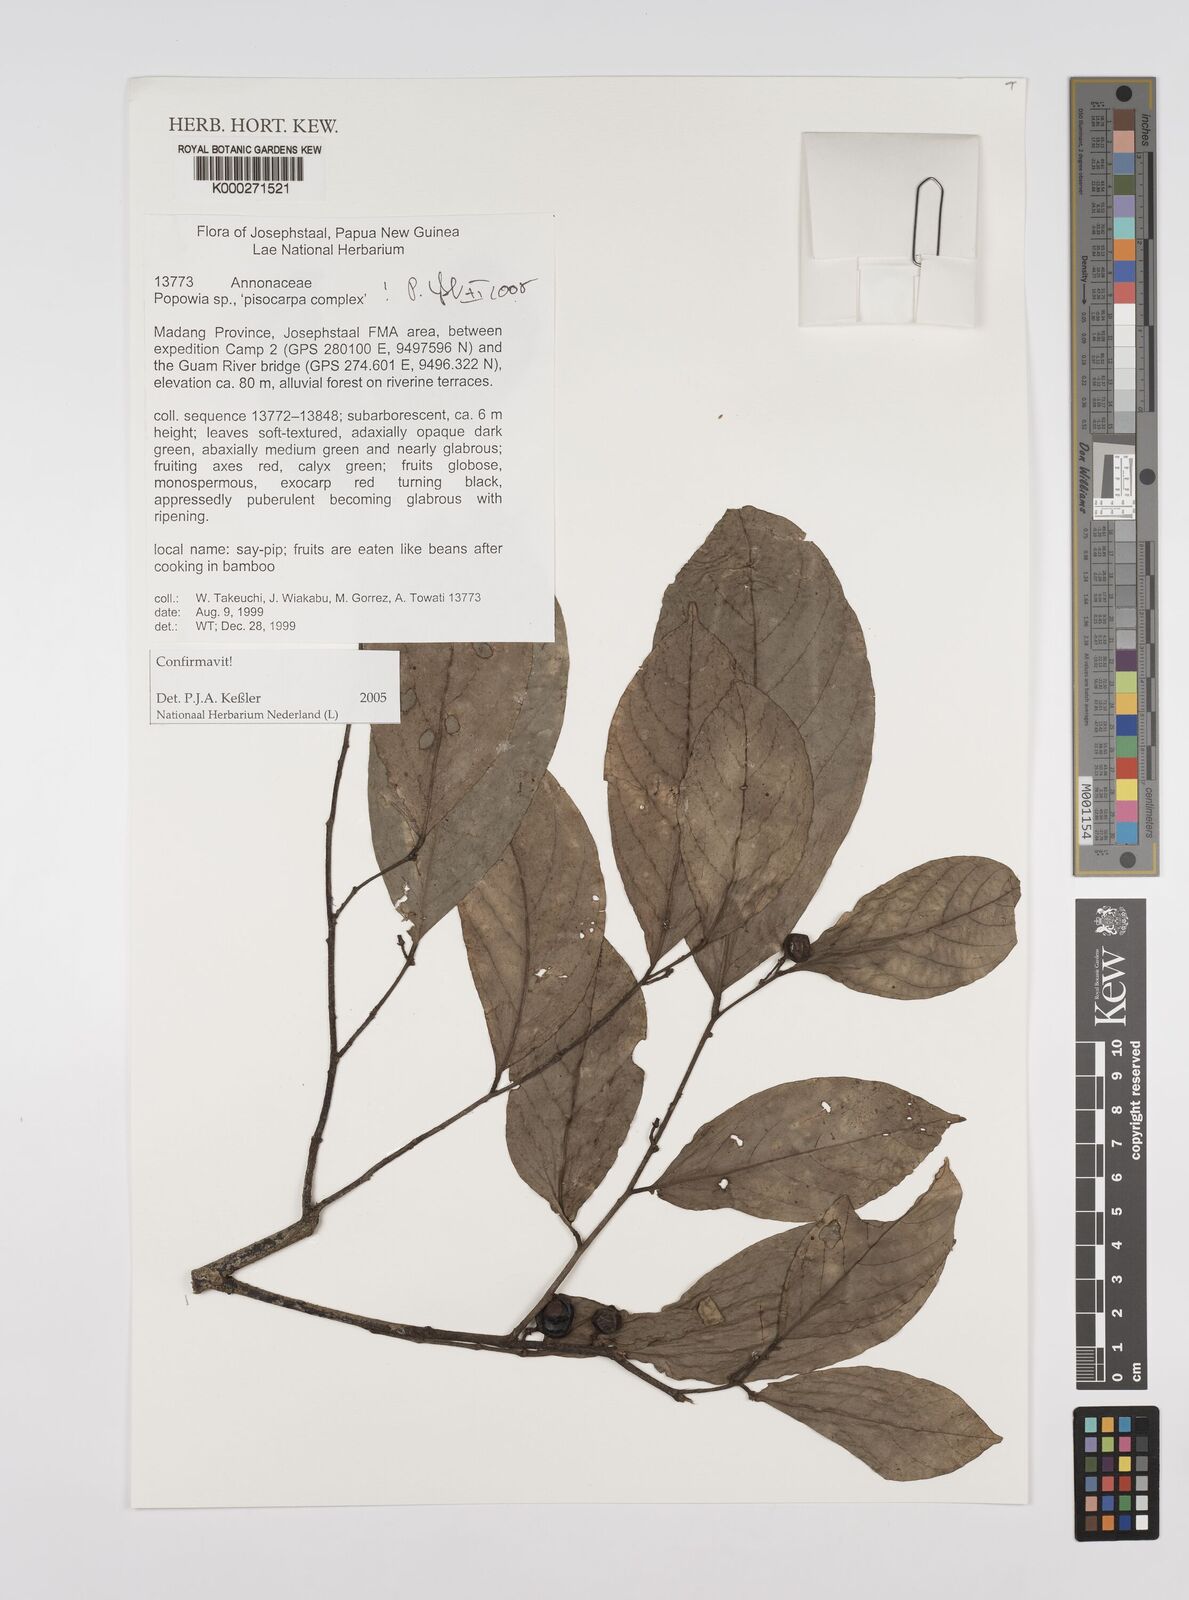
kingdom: Plantae
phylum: Tracheophyta
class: Magnoliopsida
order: Magnoliales
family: Annonaceae
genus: Popowia
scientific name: Popowia
